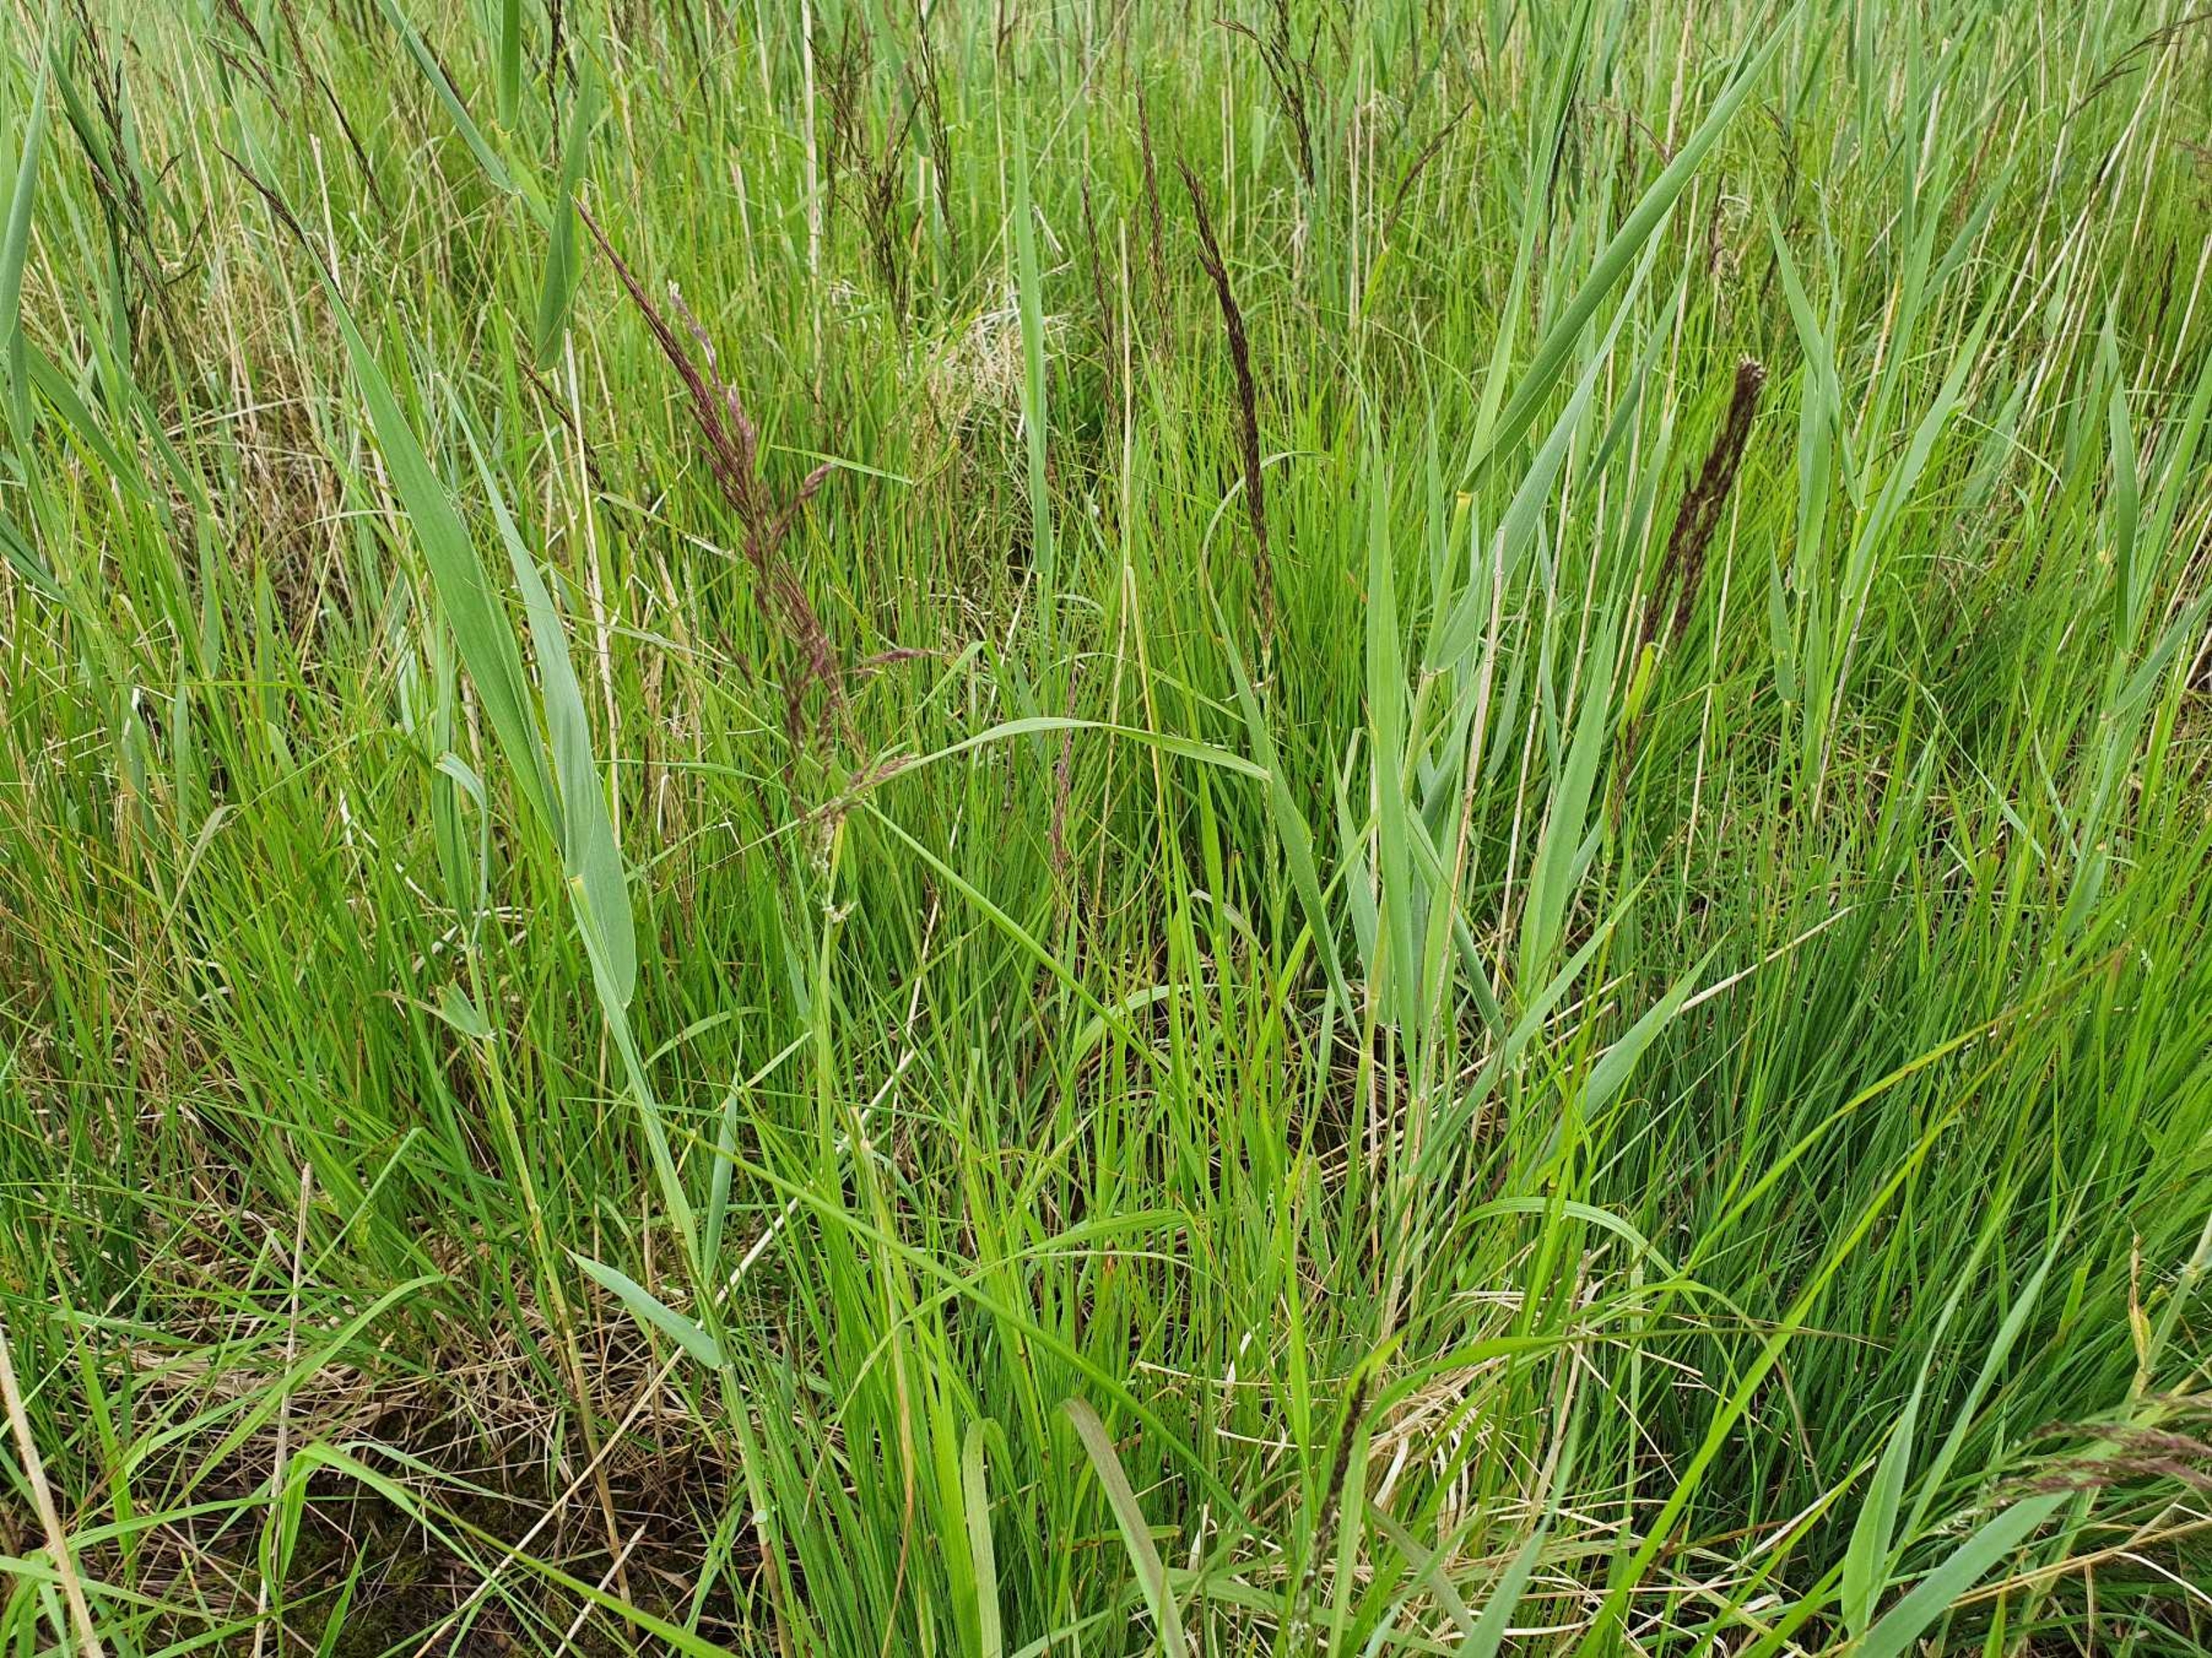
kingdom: Plantae
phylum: Tracheophyta
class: Liliopsida
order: Poales
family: Poaceae
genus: Calamagrostis
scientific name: Calamagrostis canescens
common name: Eng-rørhvene
